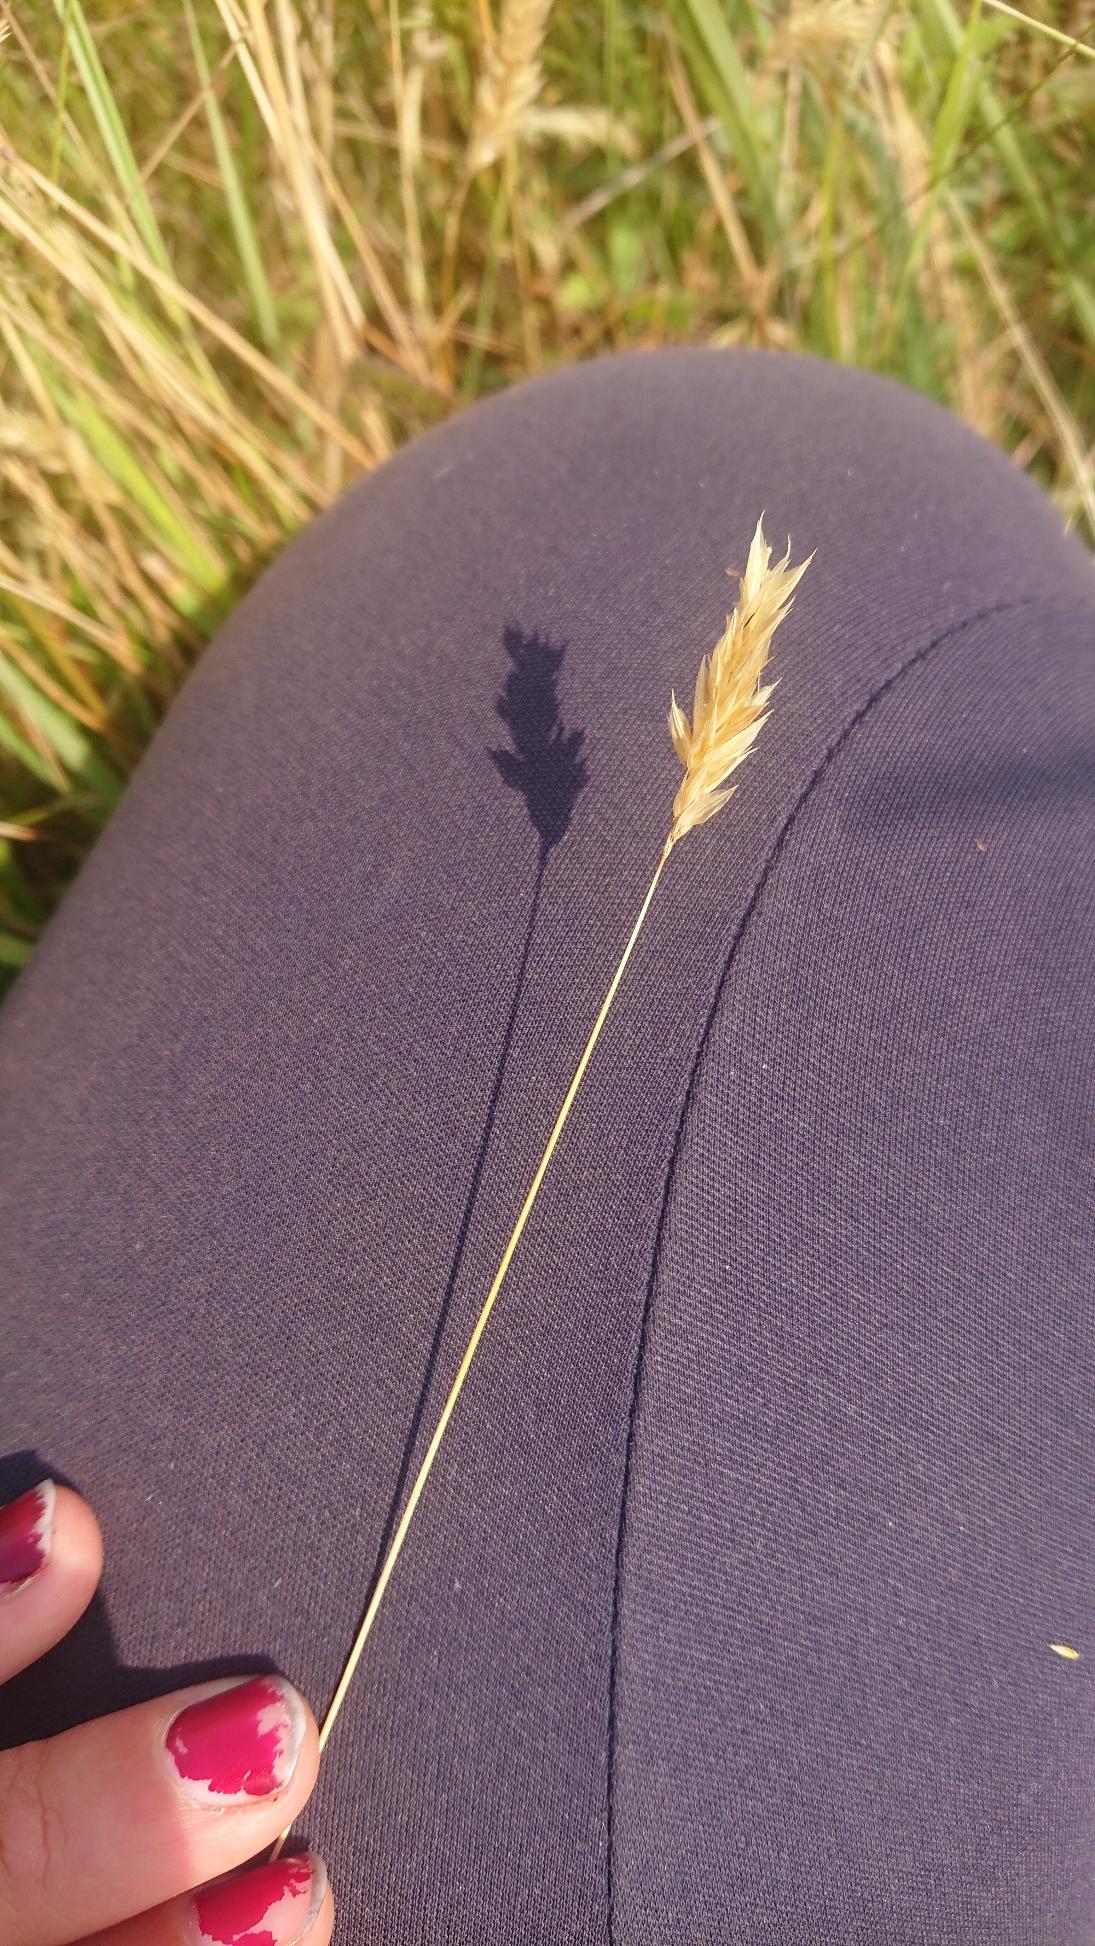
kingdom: Plantae
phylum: Tracheophyta
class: Liliopsida
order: Poales
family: Poaceae
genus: Anthoxanthum
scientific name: Anthoxanthum odoratum
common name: Vellugtende gulaks
